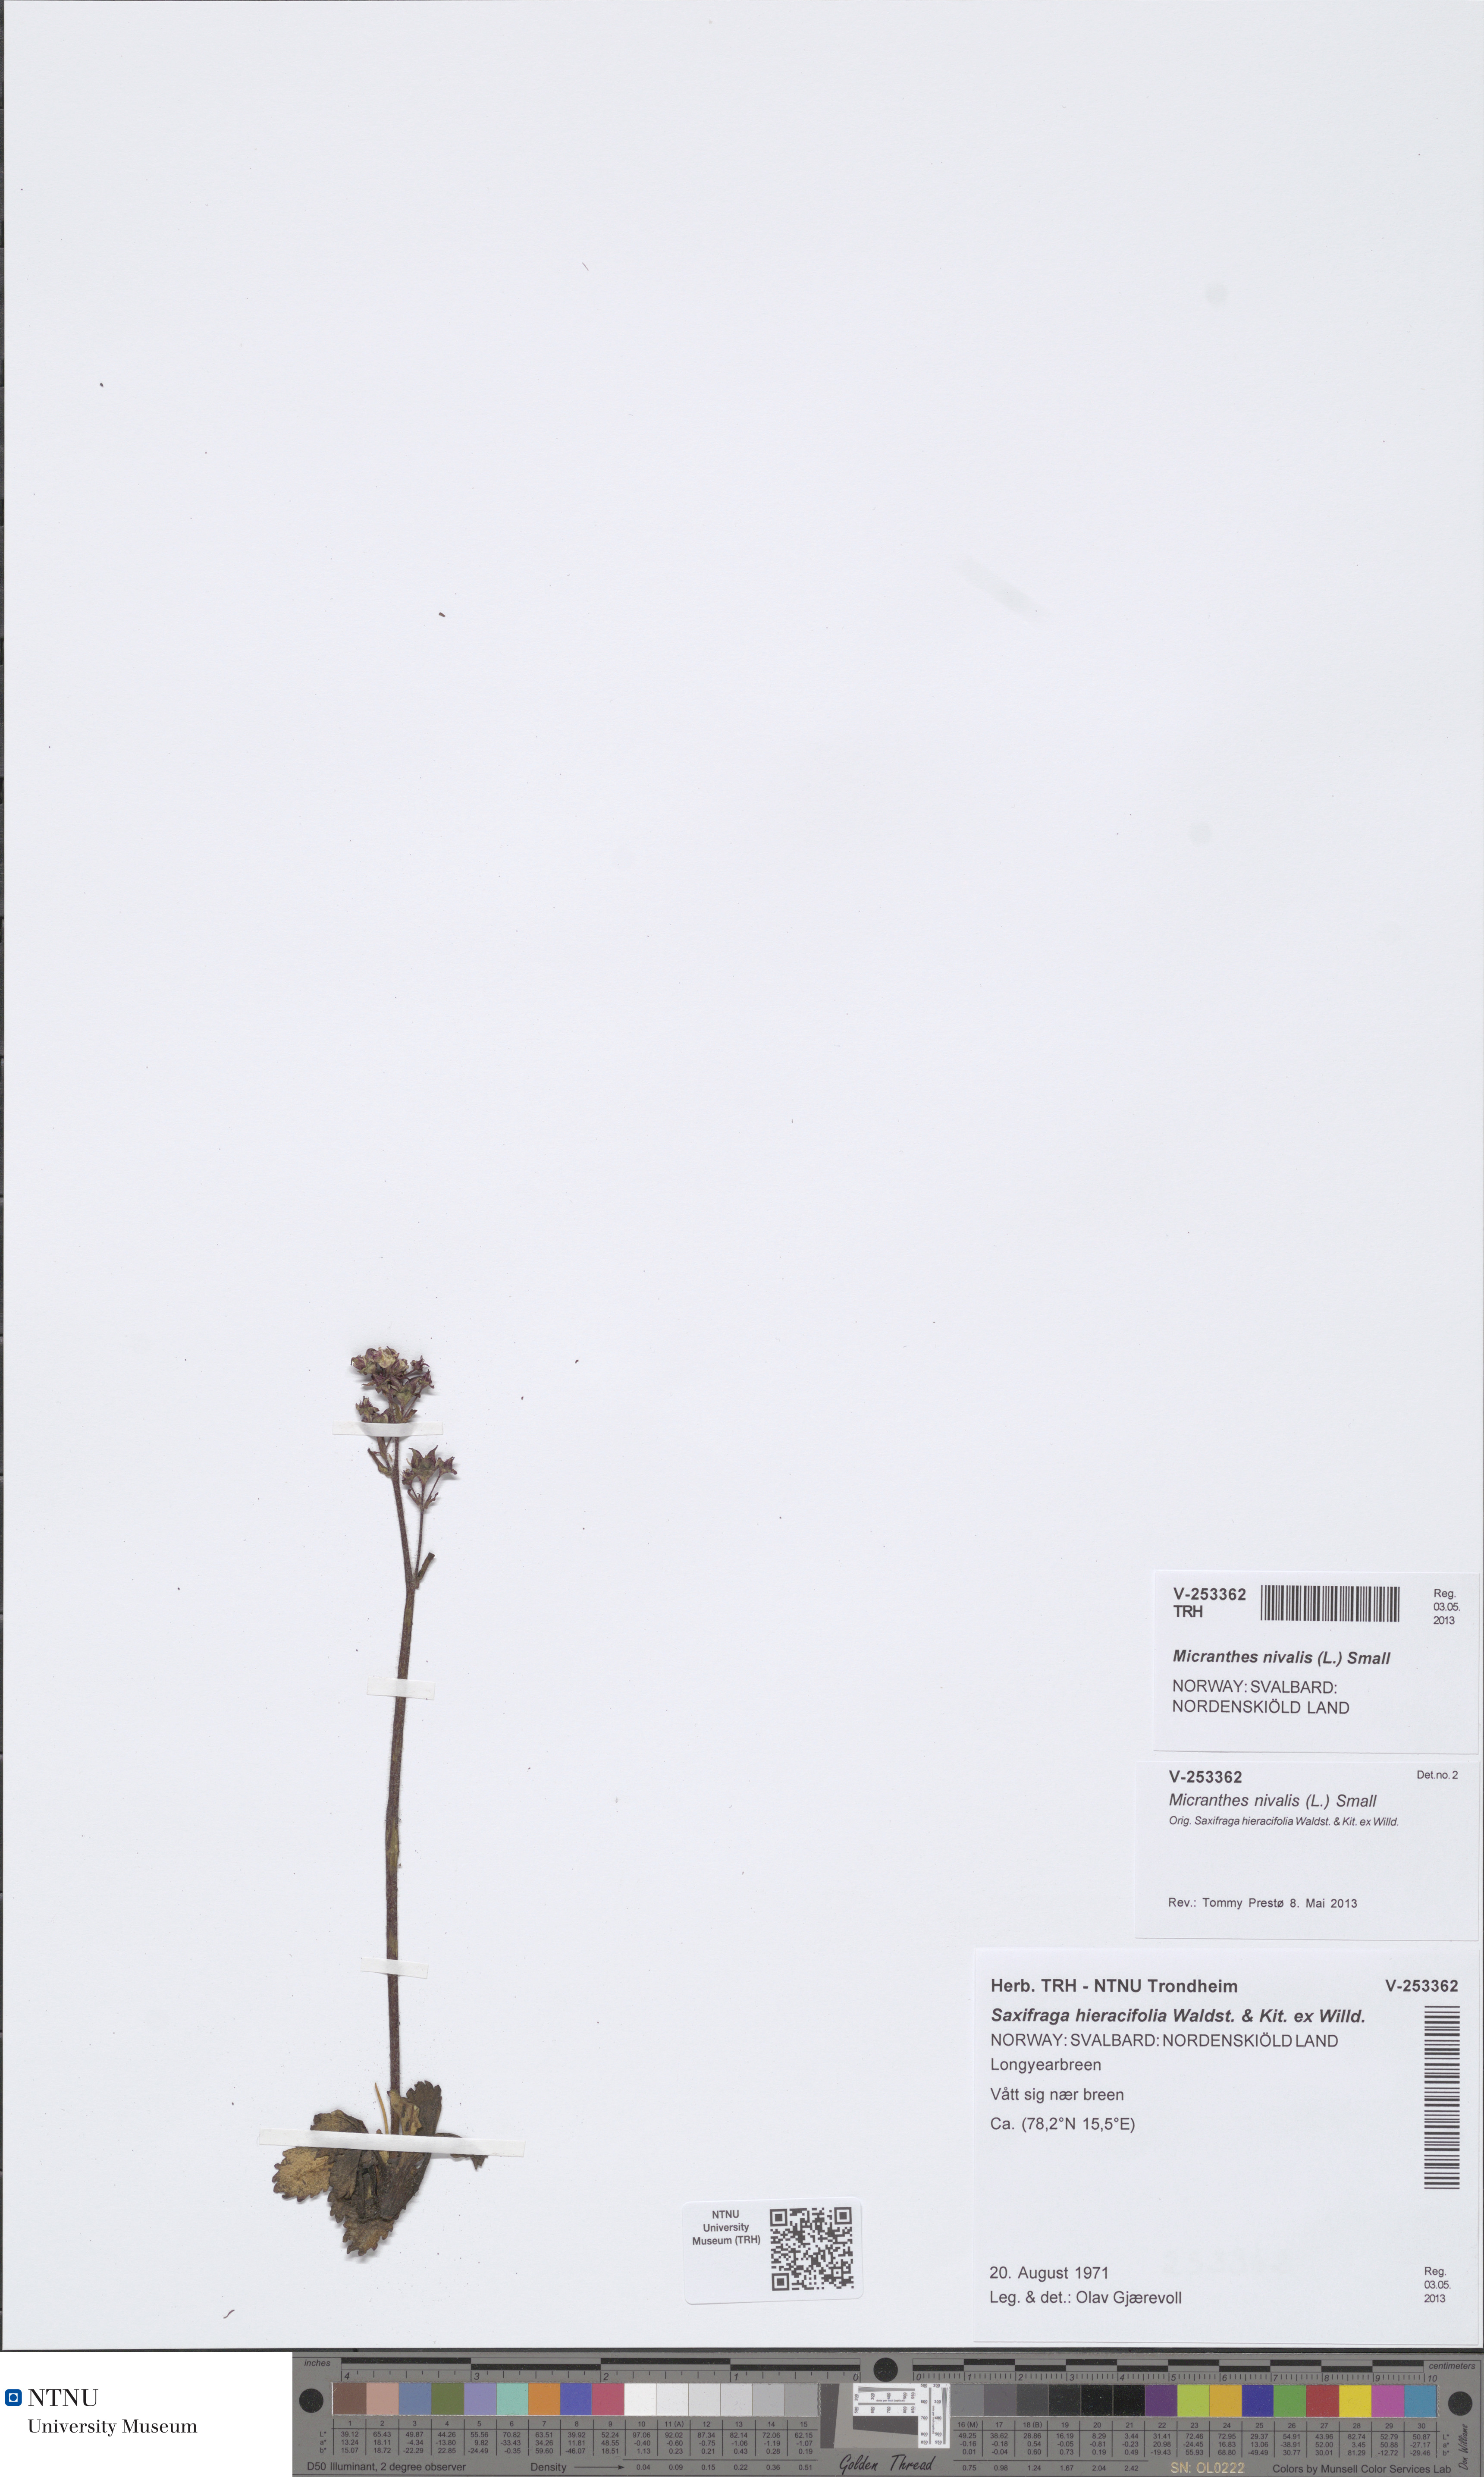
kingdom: Plantae
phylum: Tracheophyta
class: Magnoliopsida
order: Saxifragales
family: Saxifragaceae
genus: Micranthes
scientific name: Micranthes nivalis
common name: Alpine saxifrage
